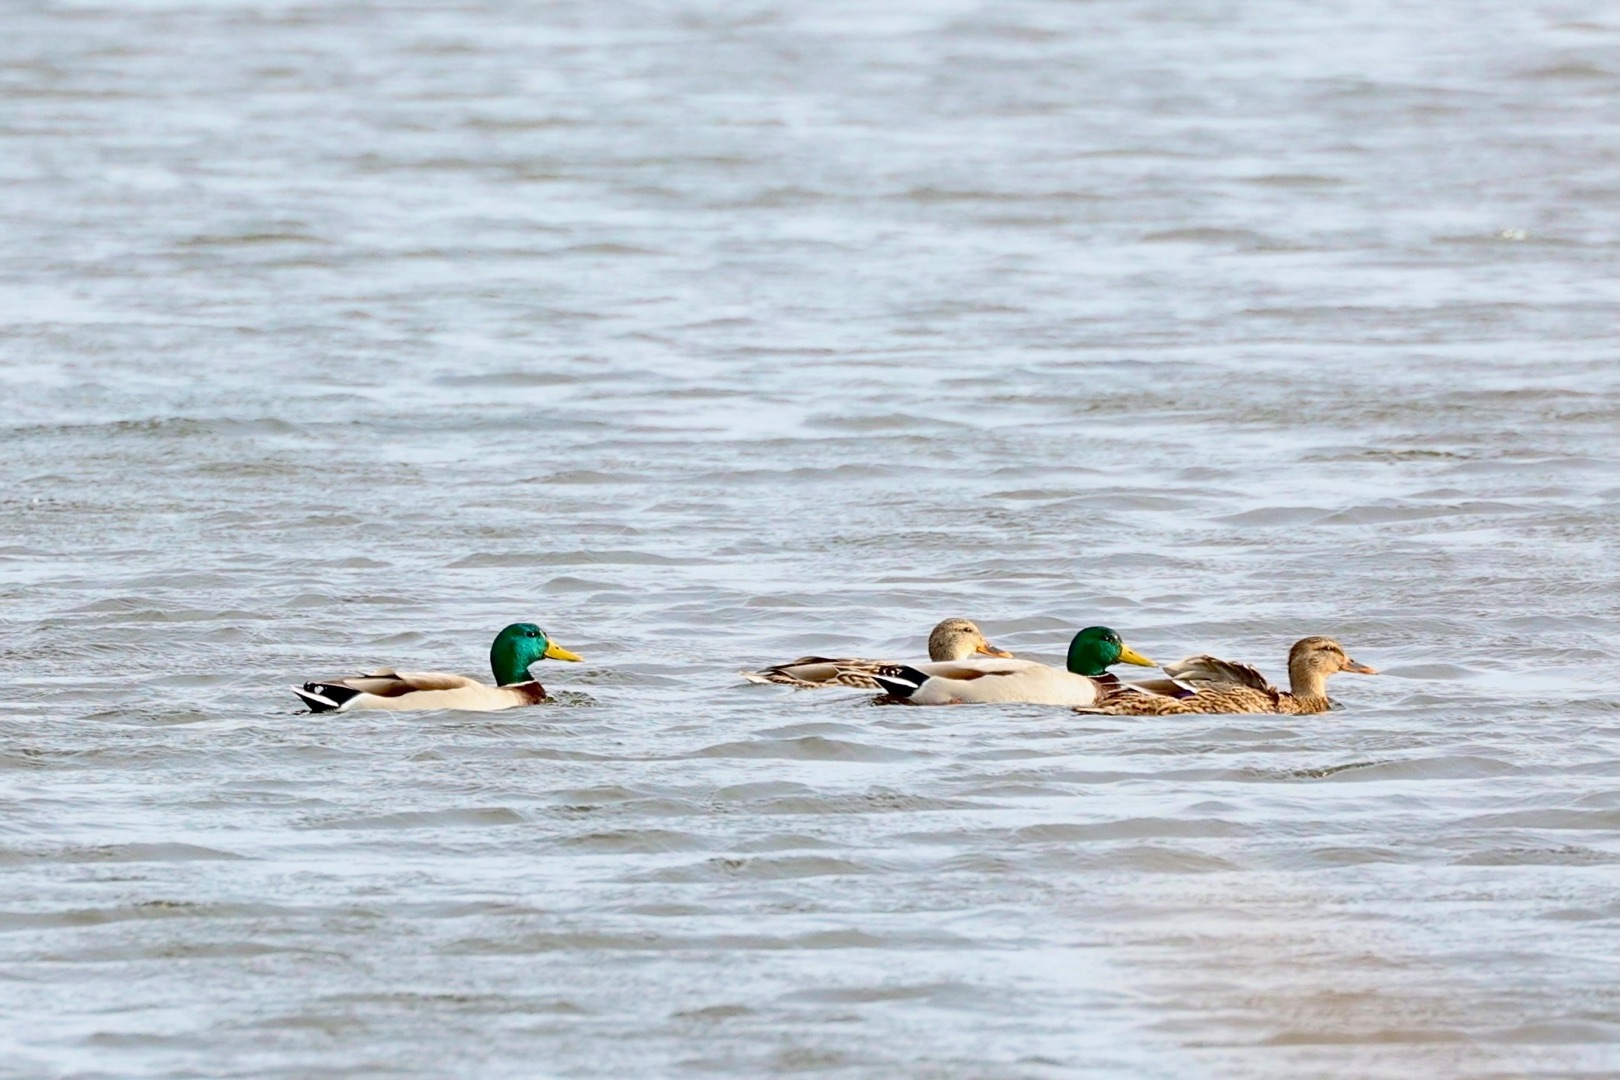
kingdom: Animalia
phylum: Chordata
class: Aves
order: Anseriformes
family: Anatidae
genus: Anas
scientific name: Anas platyrhynchos
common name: Gråand
